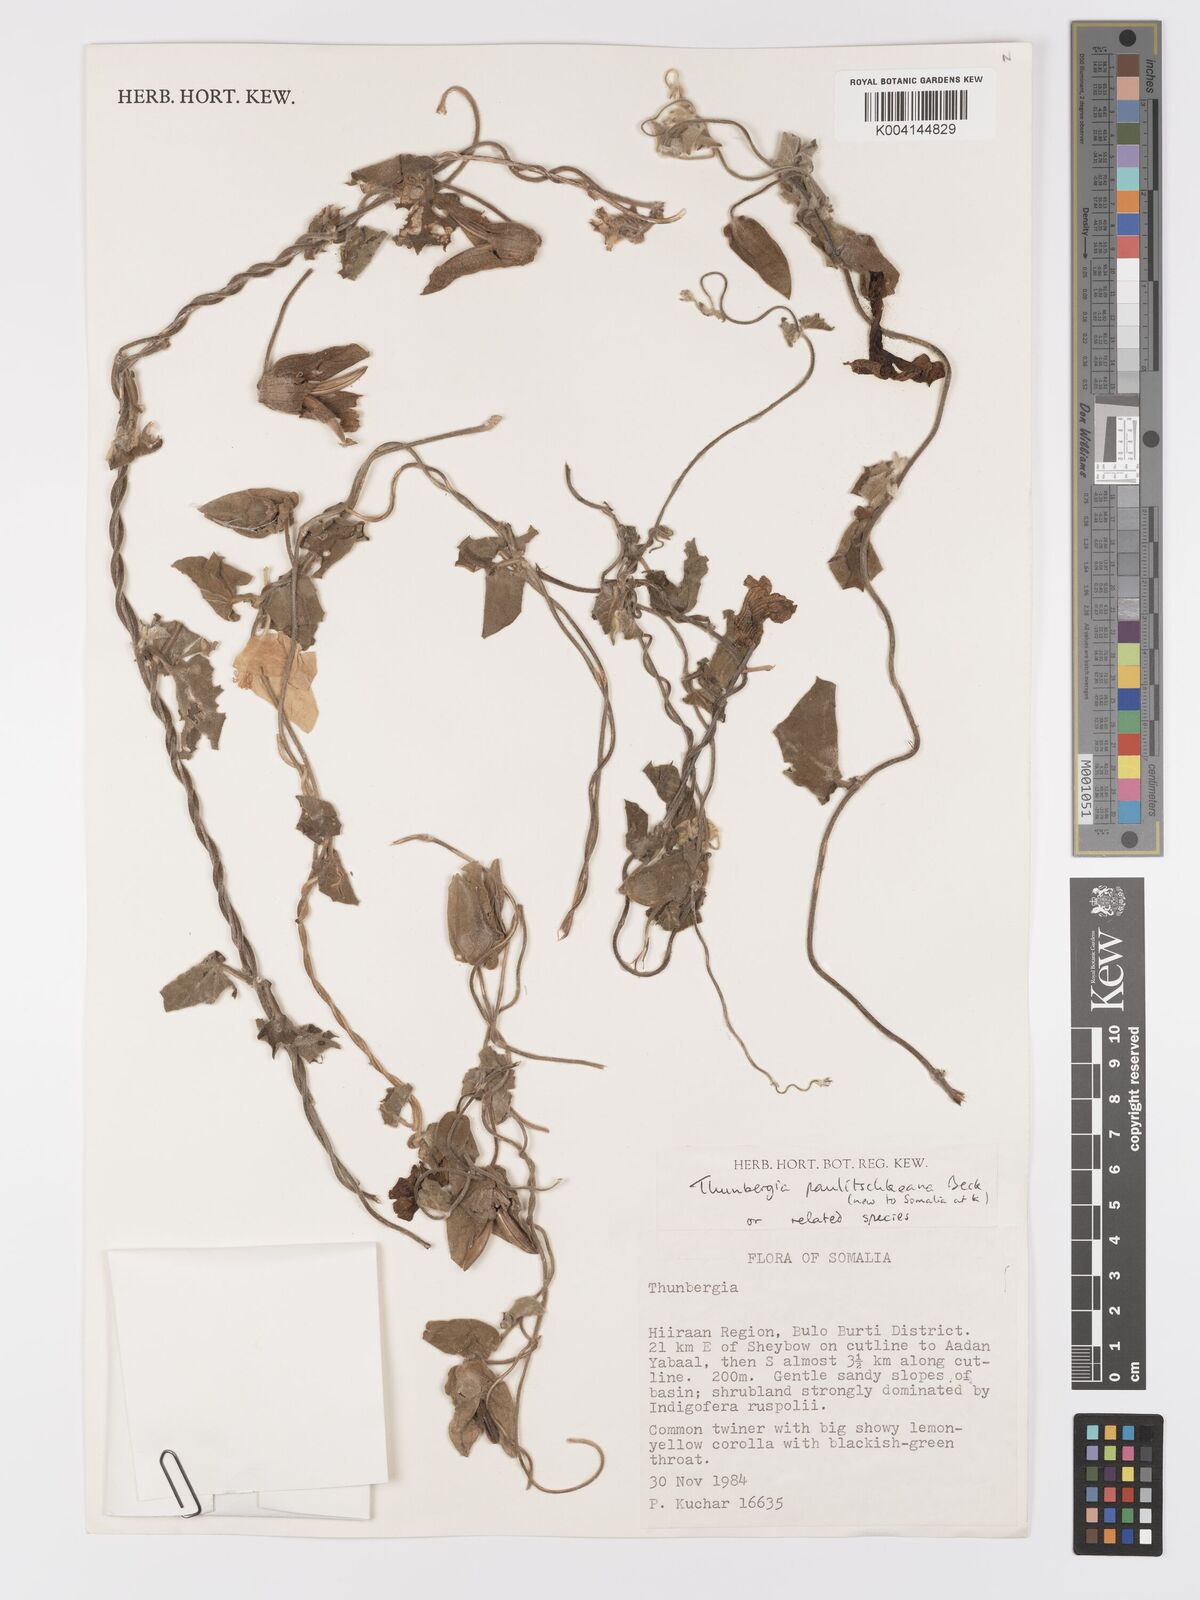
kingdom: Plantae
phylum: Tracheophyta
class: Magnoliopsida
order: Lamiales
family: Acanthaceae
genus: Thunbergia
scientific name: Thunbergia alata
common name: Blackeyed susan vine
